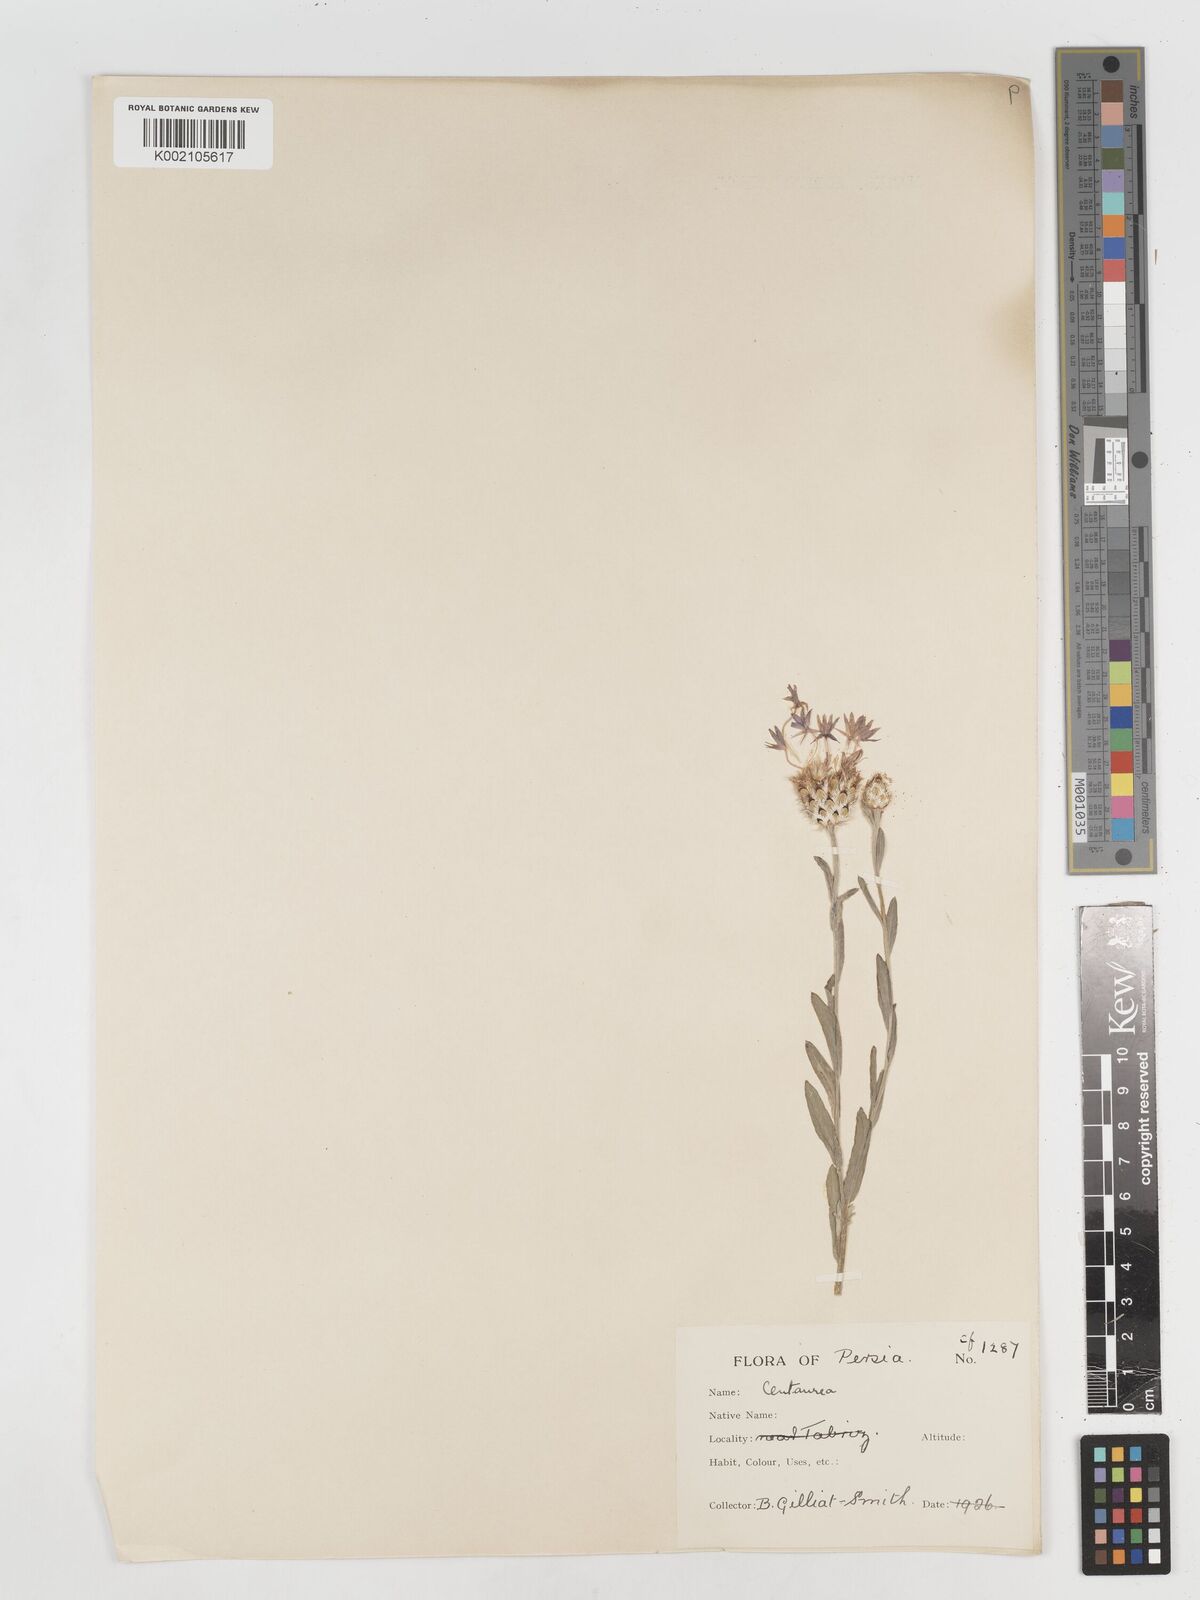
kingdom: Plantae
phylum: Tracheophyta
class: Magnoliopsida
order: Asterales
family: Asteraceae
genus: Centaurea
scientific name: Centaurea depressa
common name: Iranian knapweed
